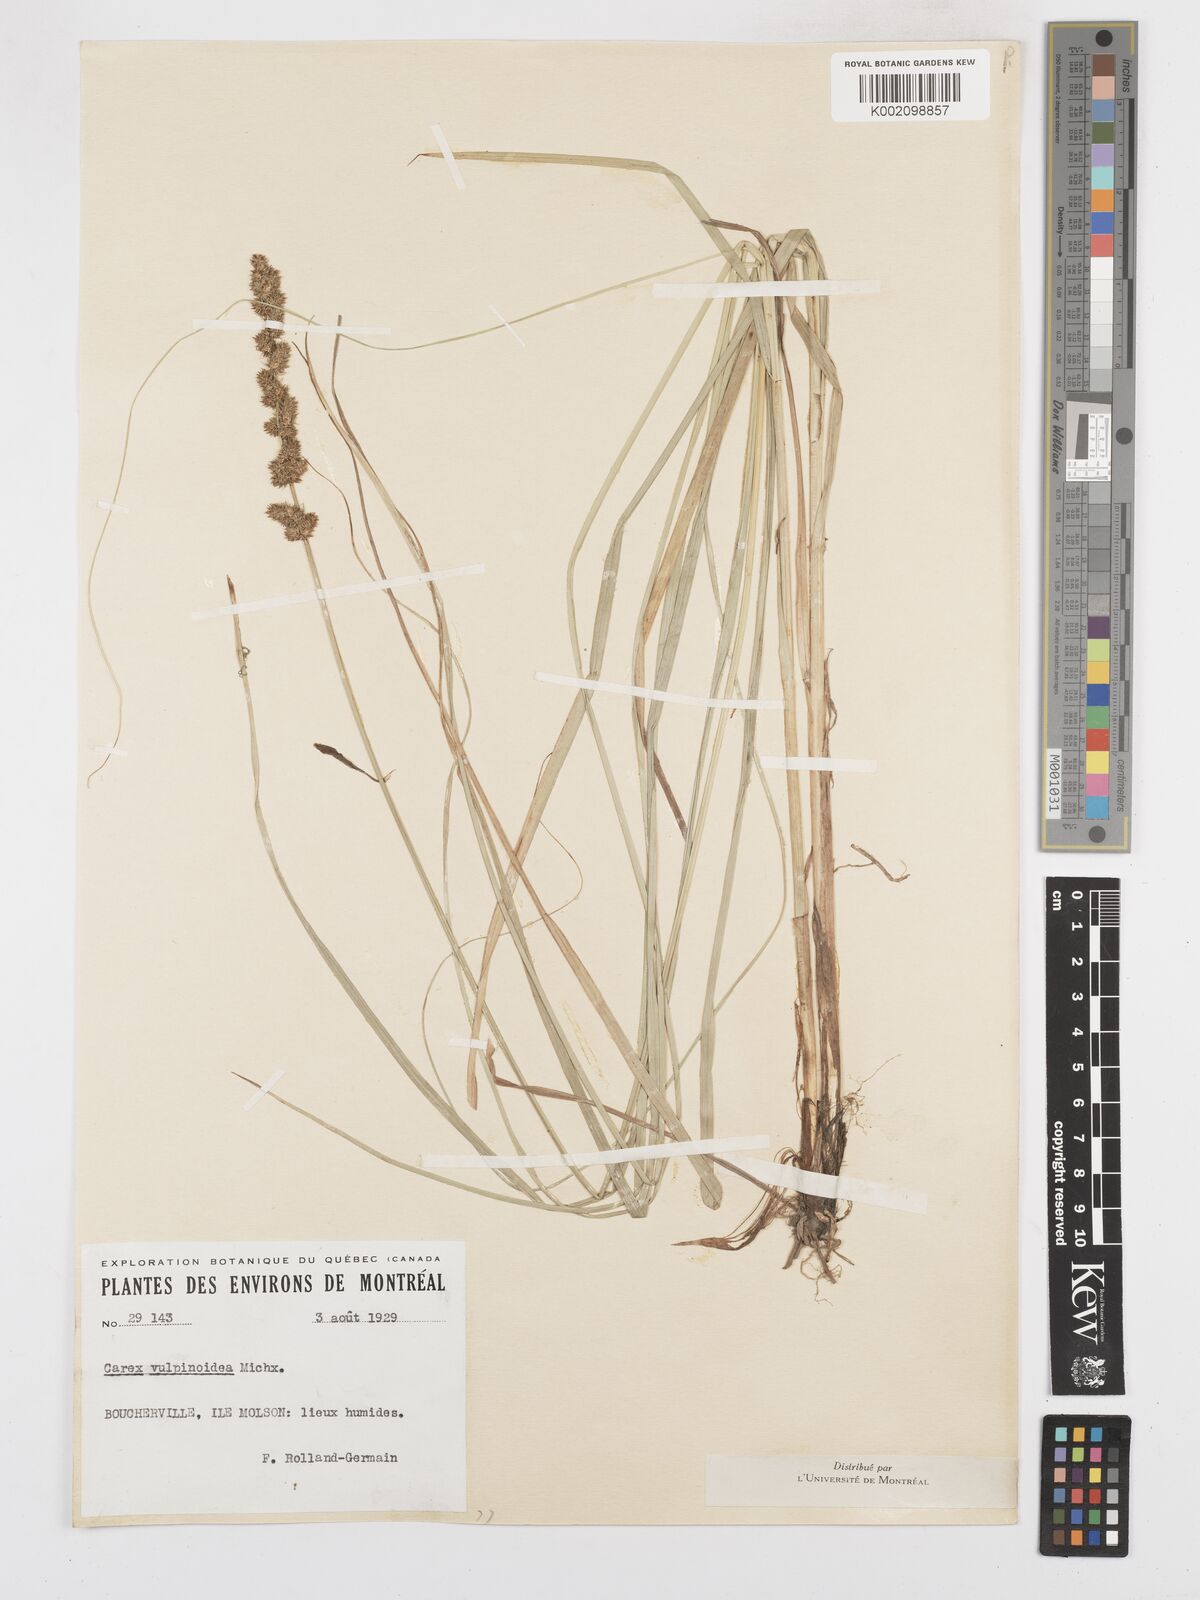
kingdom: Plantae
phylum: Tracheophyta
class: Liliopsida
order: Poales
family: Cyperaceae
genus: Carex
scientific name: Carex vulpinoidea
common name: American fox-sedge
